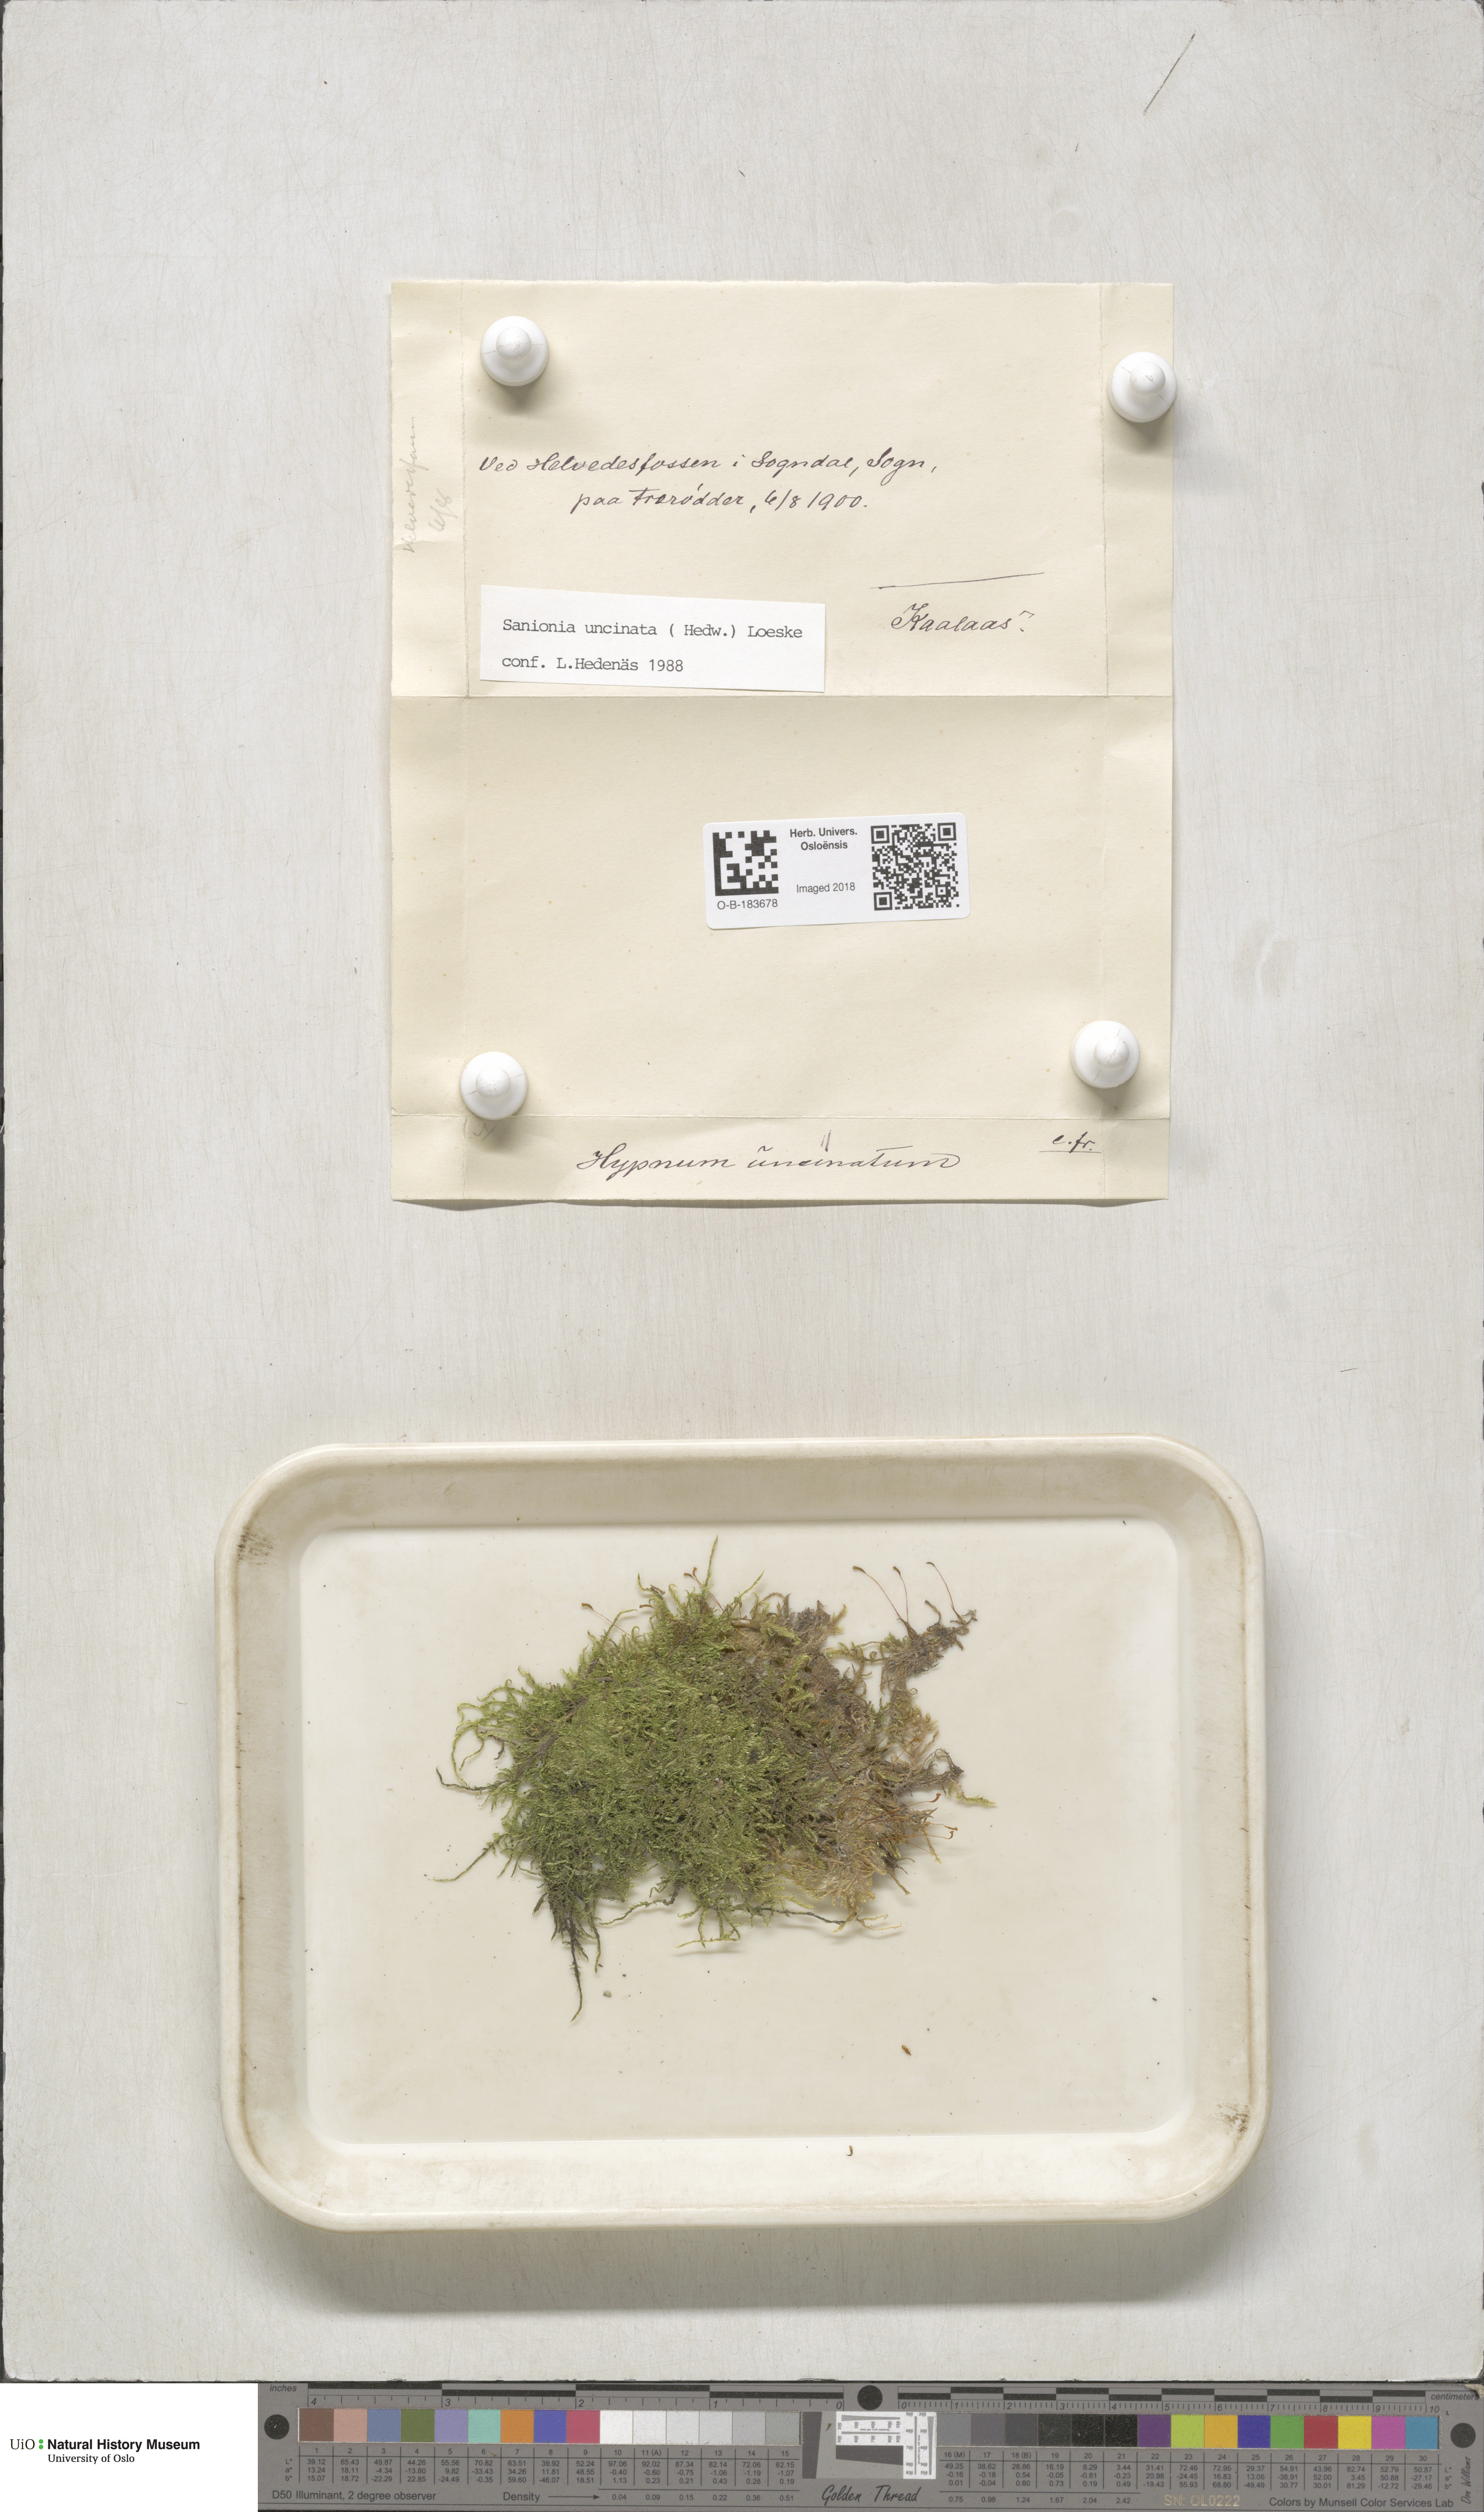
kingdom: Plantae
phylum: Bryophyta
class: Bryopsida
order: Hypnales
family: Scorpidiaceae
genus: Sanionia
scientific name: Sanionia uncinata
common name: Sickle moss
